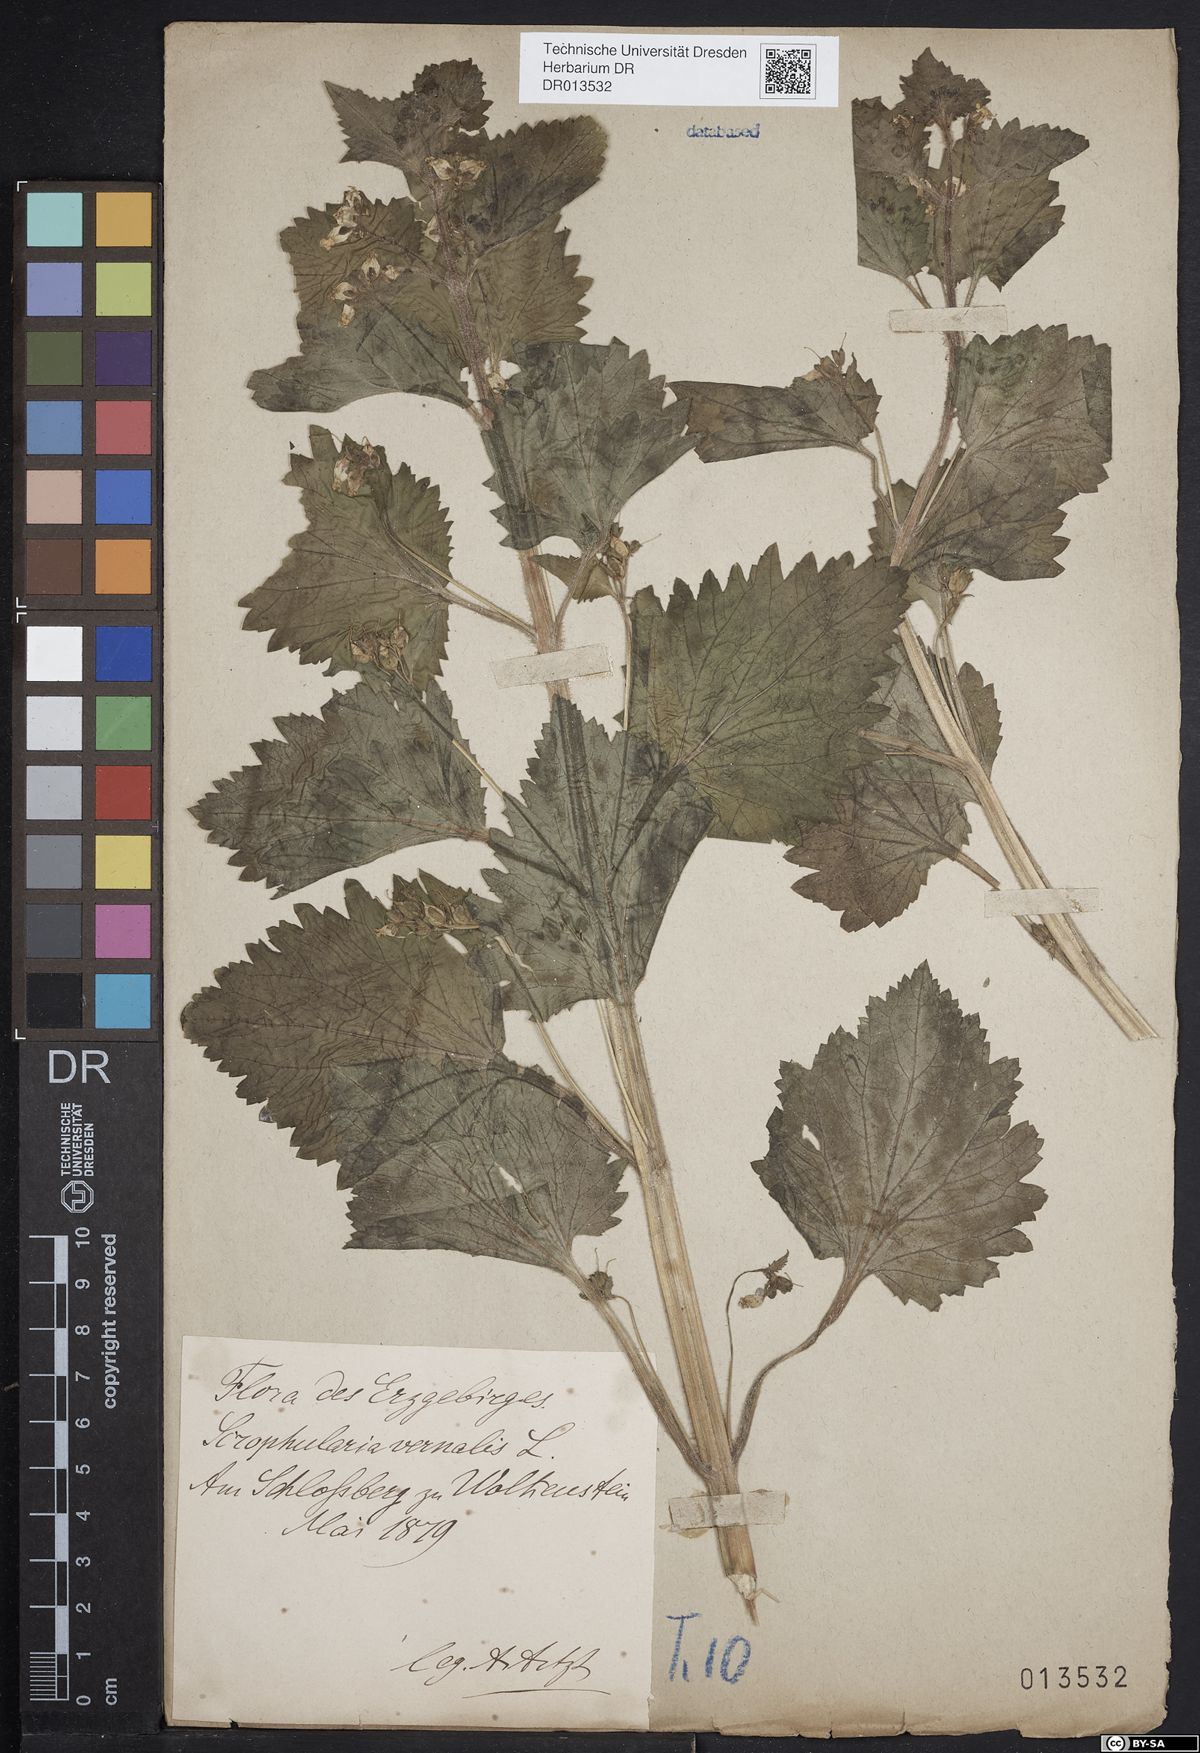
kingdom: Plantae
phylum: Tracheophyta
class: Magnoliopsida
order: Lamiales
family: Scrophulariaceae
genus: Scrophularia
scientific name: Scrophularia vernalis
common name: Yellow figwort
